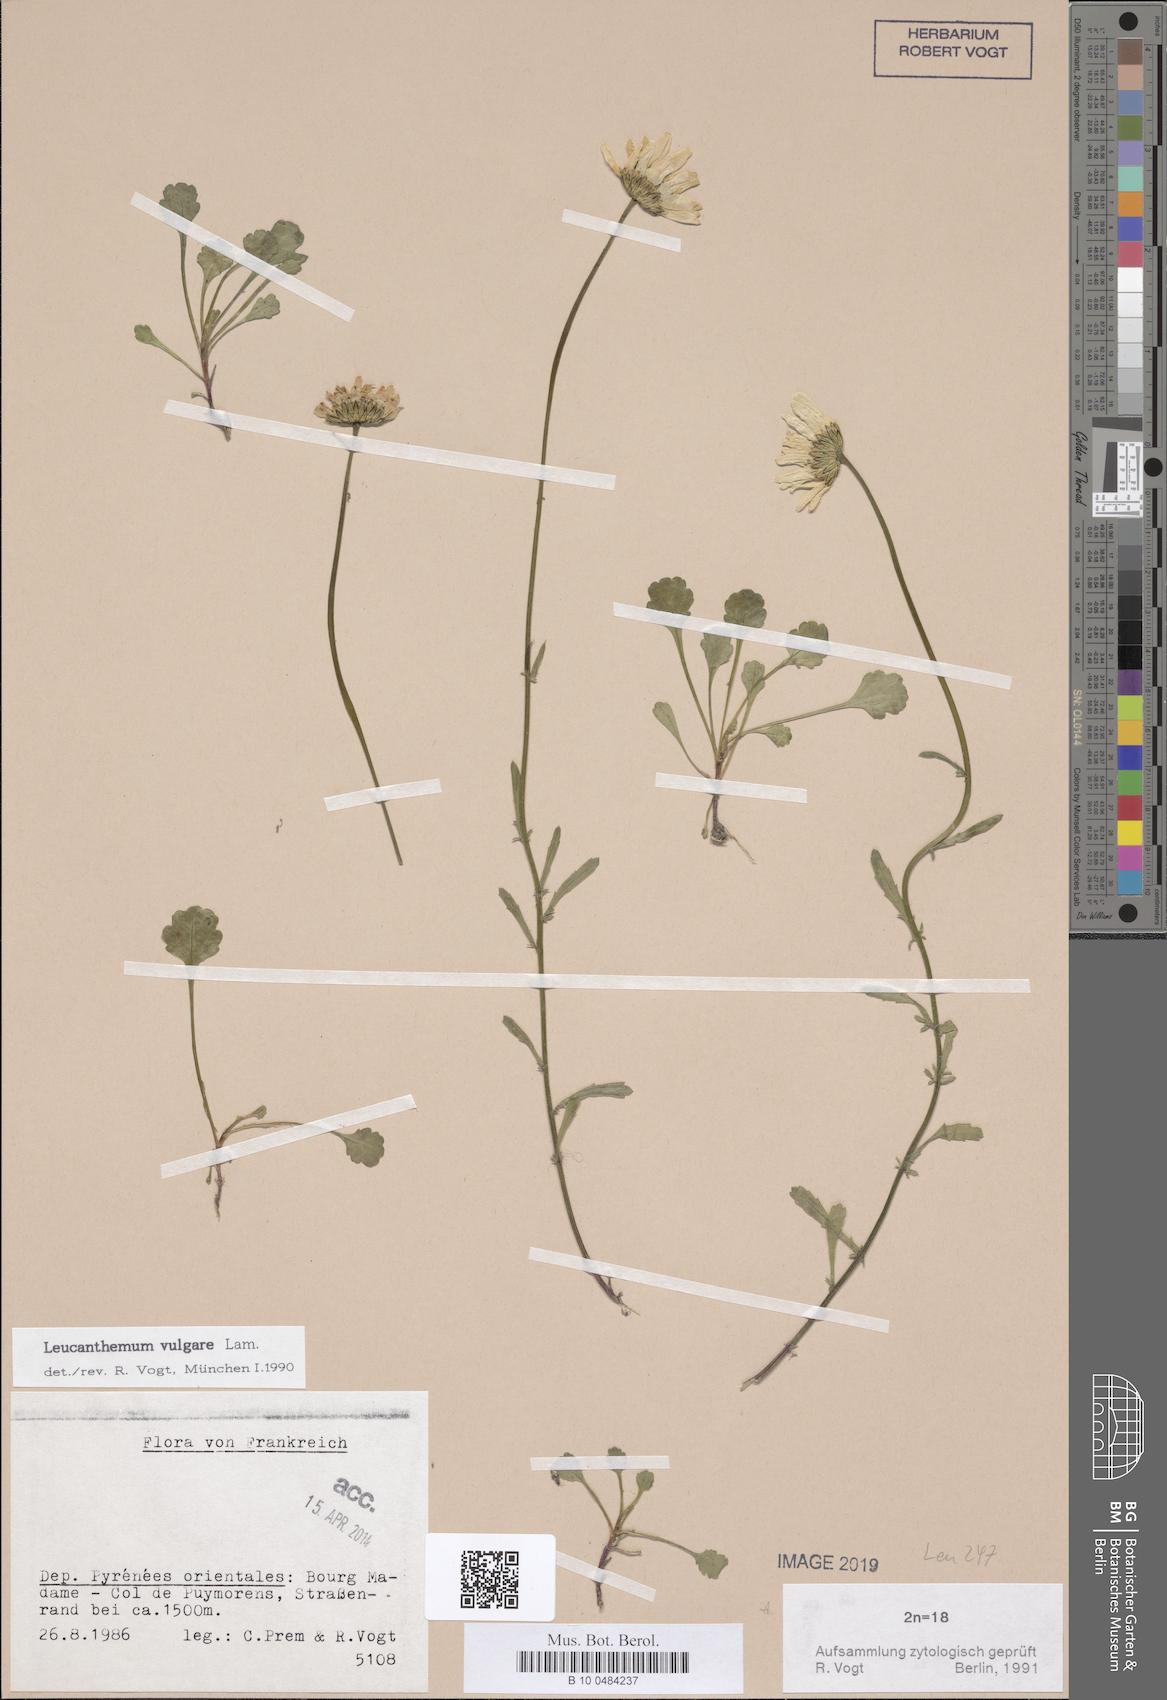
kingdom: Plantae
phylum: Tracheophyta
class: Magnoliopsida
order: Asterales
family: Asteraceae
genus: Leucanthemum
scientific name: Leucanthemum vulgare
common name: Oxeye daisy
